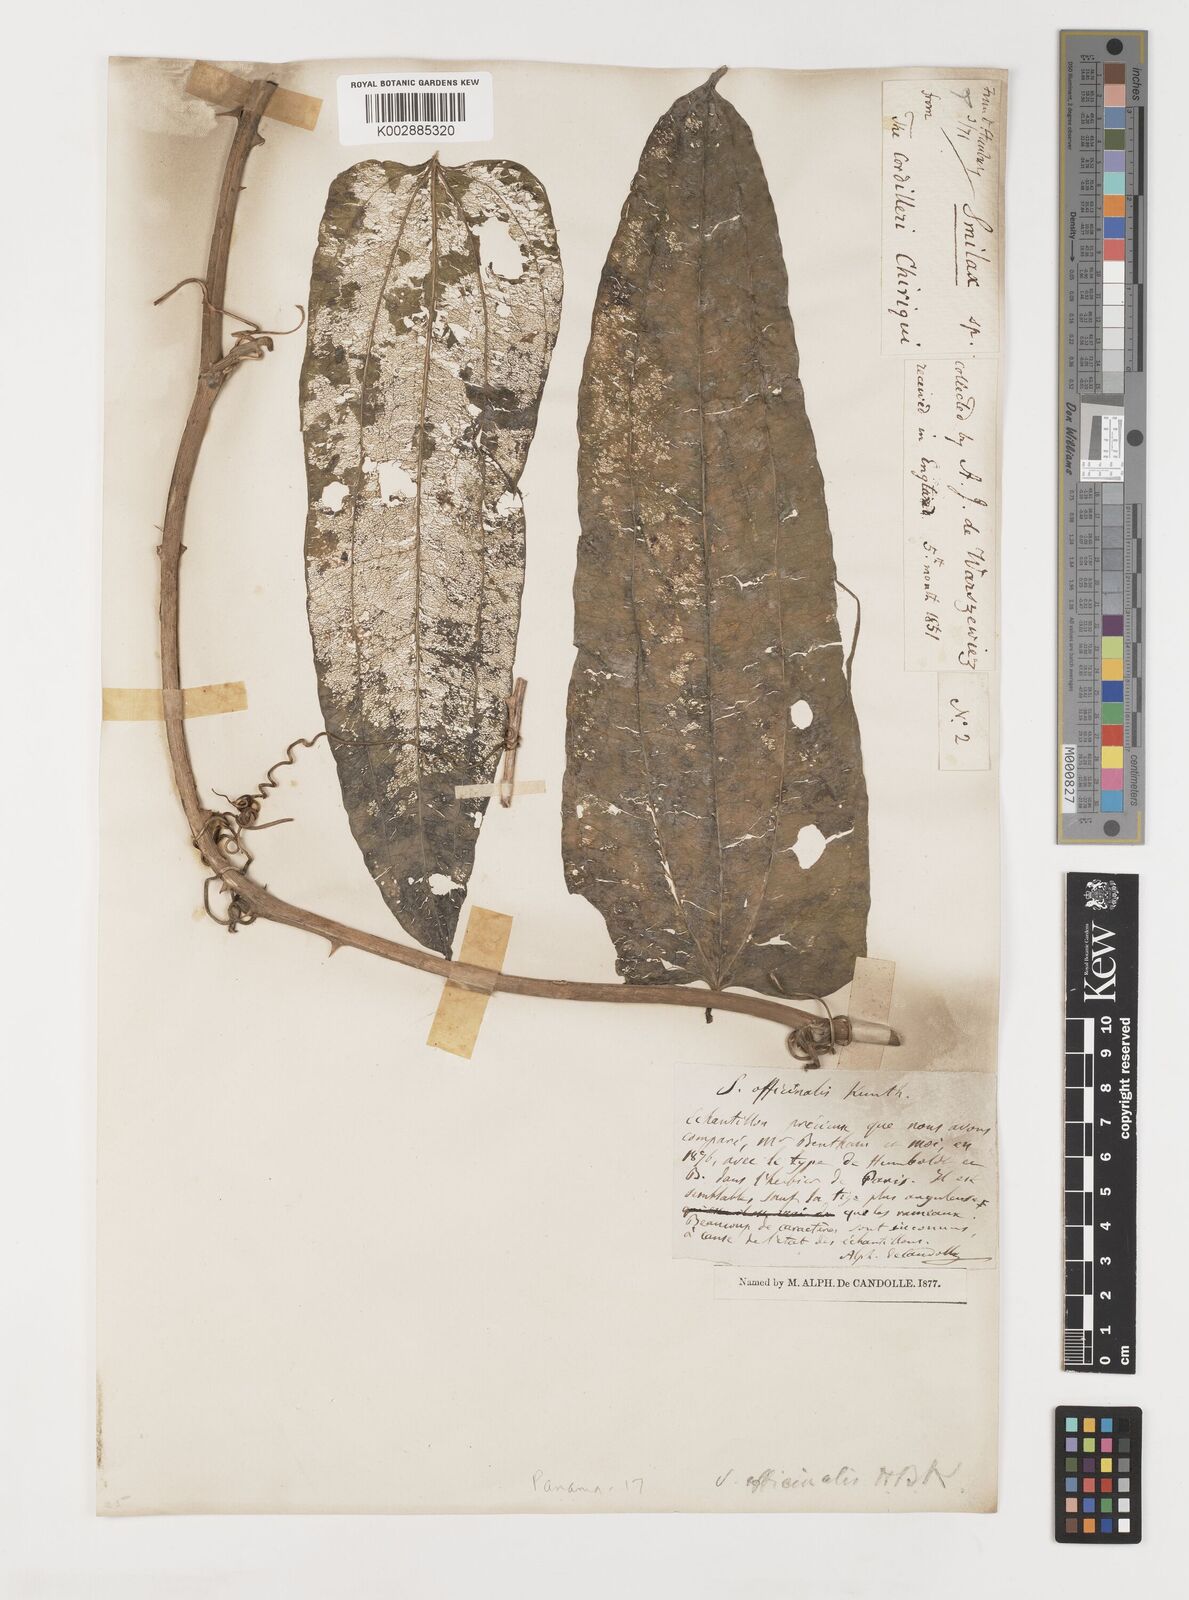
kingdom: Plantae
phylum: Tracheophyta
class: Liliopsida
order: Liliales
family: Smilacaceae
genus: Smilax
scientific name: Smilax officinalis
